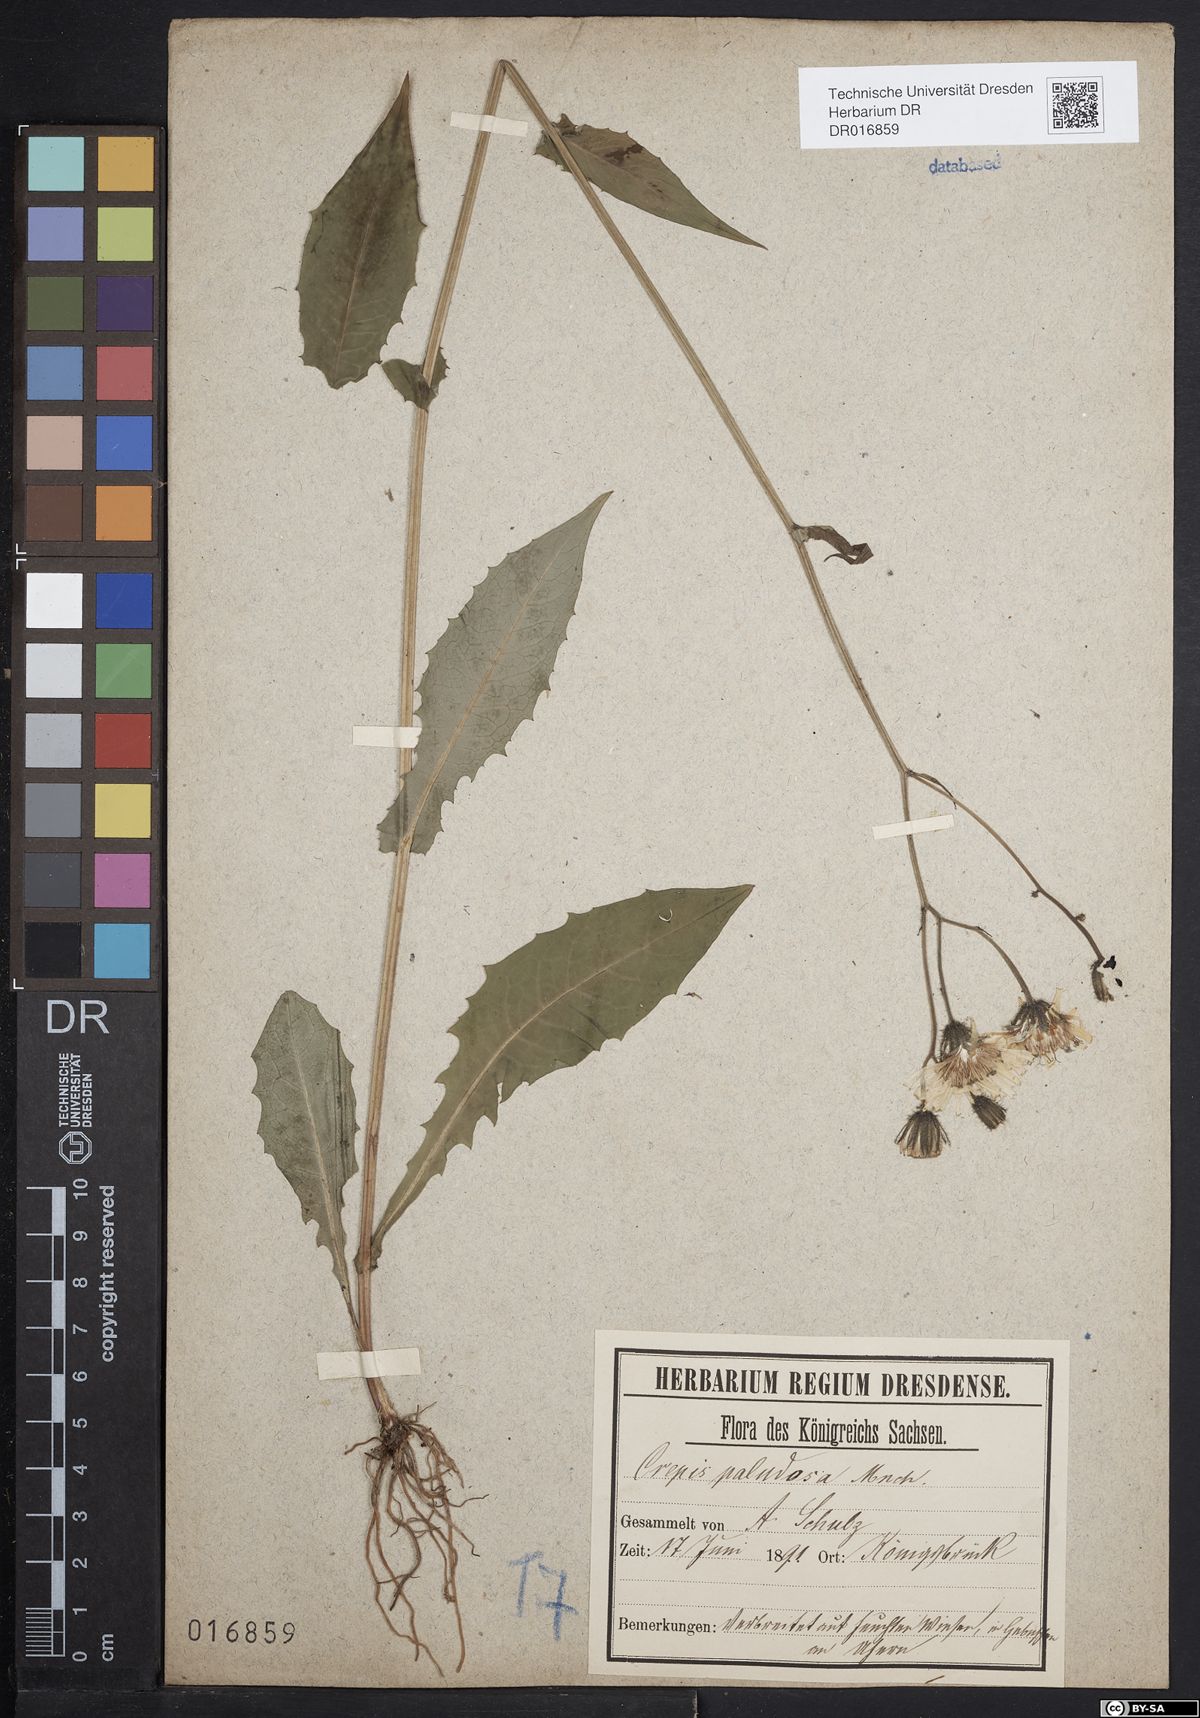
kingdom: Plantae
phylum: Tracheophyta
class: Magnoliopsida
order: Asterales
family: Asteraceae
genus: Crepis
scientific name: Crepis paludosa
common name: Marsh hawk's-beard
